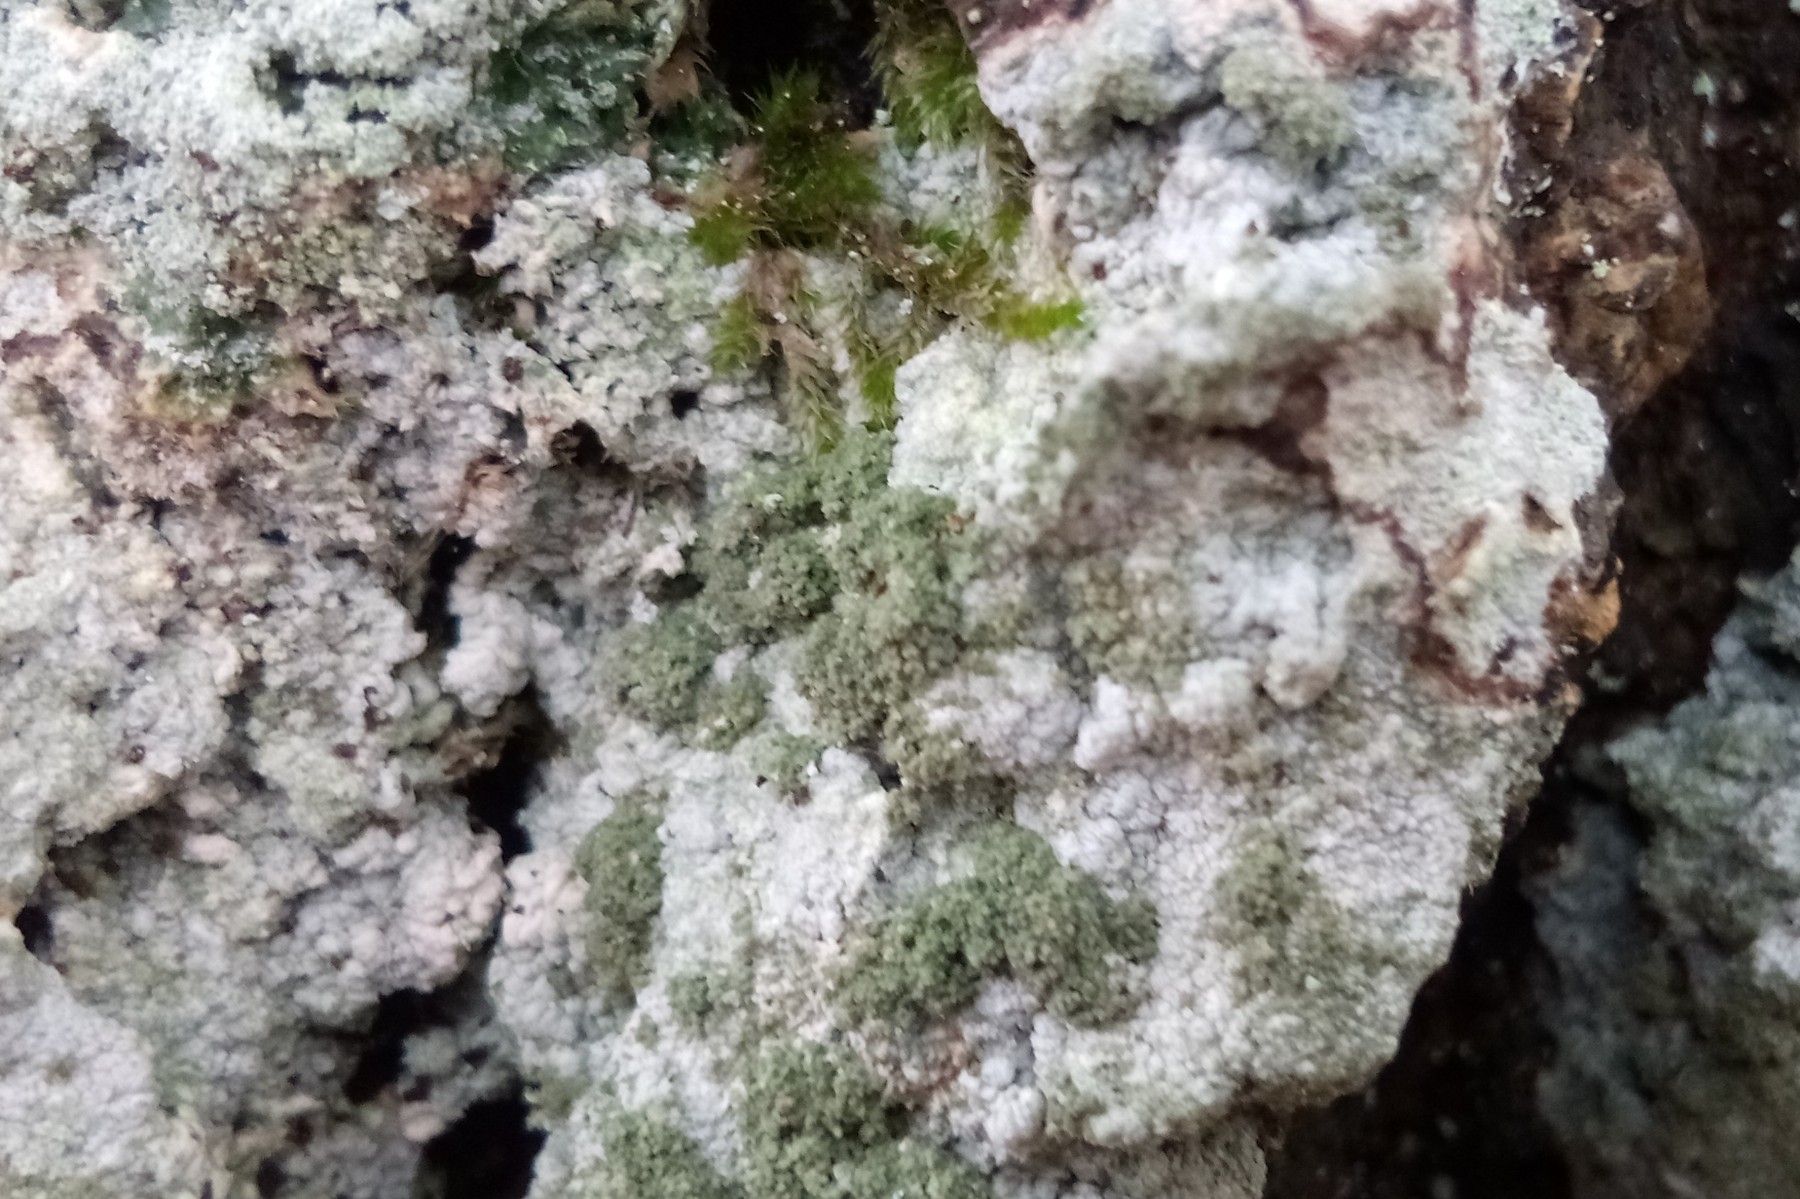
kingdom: Fungi
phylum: Ascomycota
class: Lecanoromycetes
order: Pertusariales
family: Pertusariaceae
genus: Pertusaria
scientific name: Pertusaria coccodes
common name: skurvet prikvortelav
